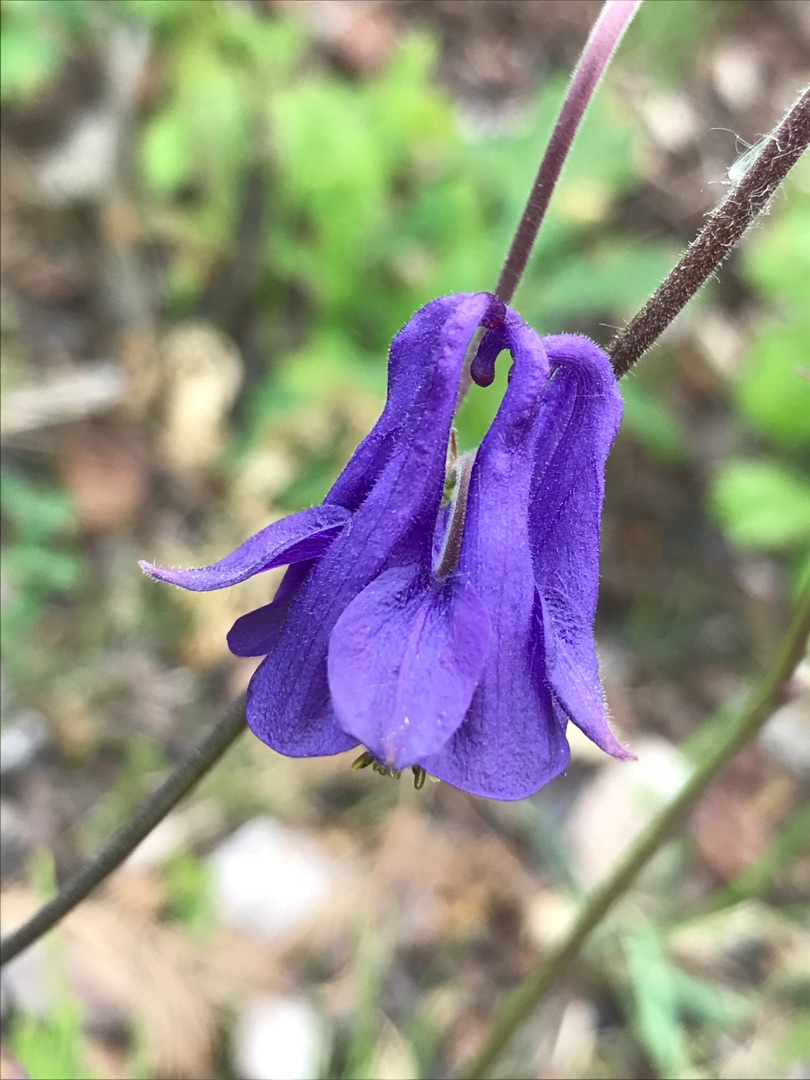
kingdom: Plantae
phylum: Tracheophyta
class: Magnoliopsida
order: Ranunculales
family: Ranunculaceae
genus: Aquilegia
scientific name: Aquilegia vulgaris
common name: Akeleje
